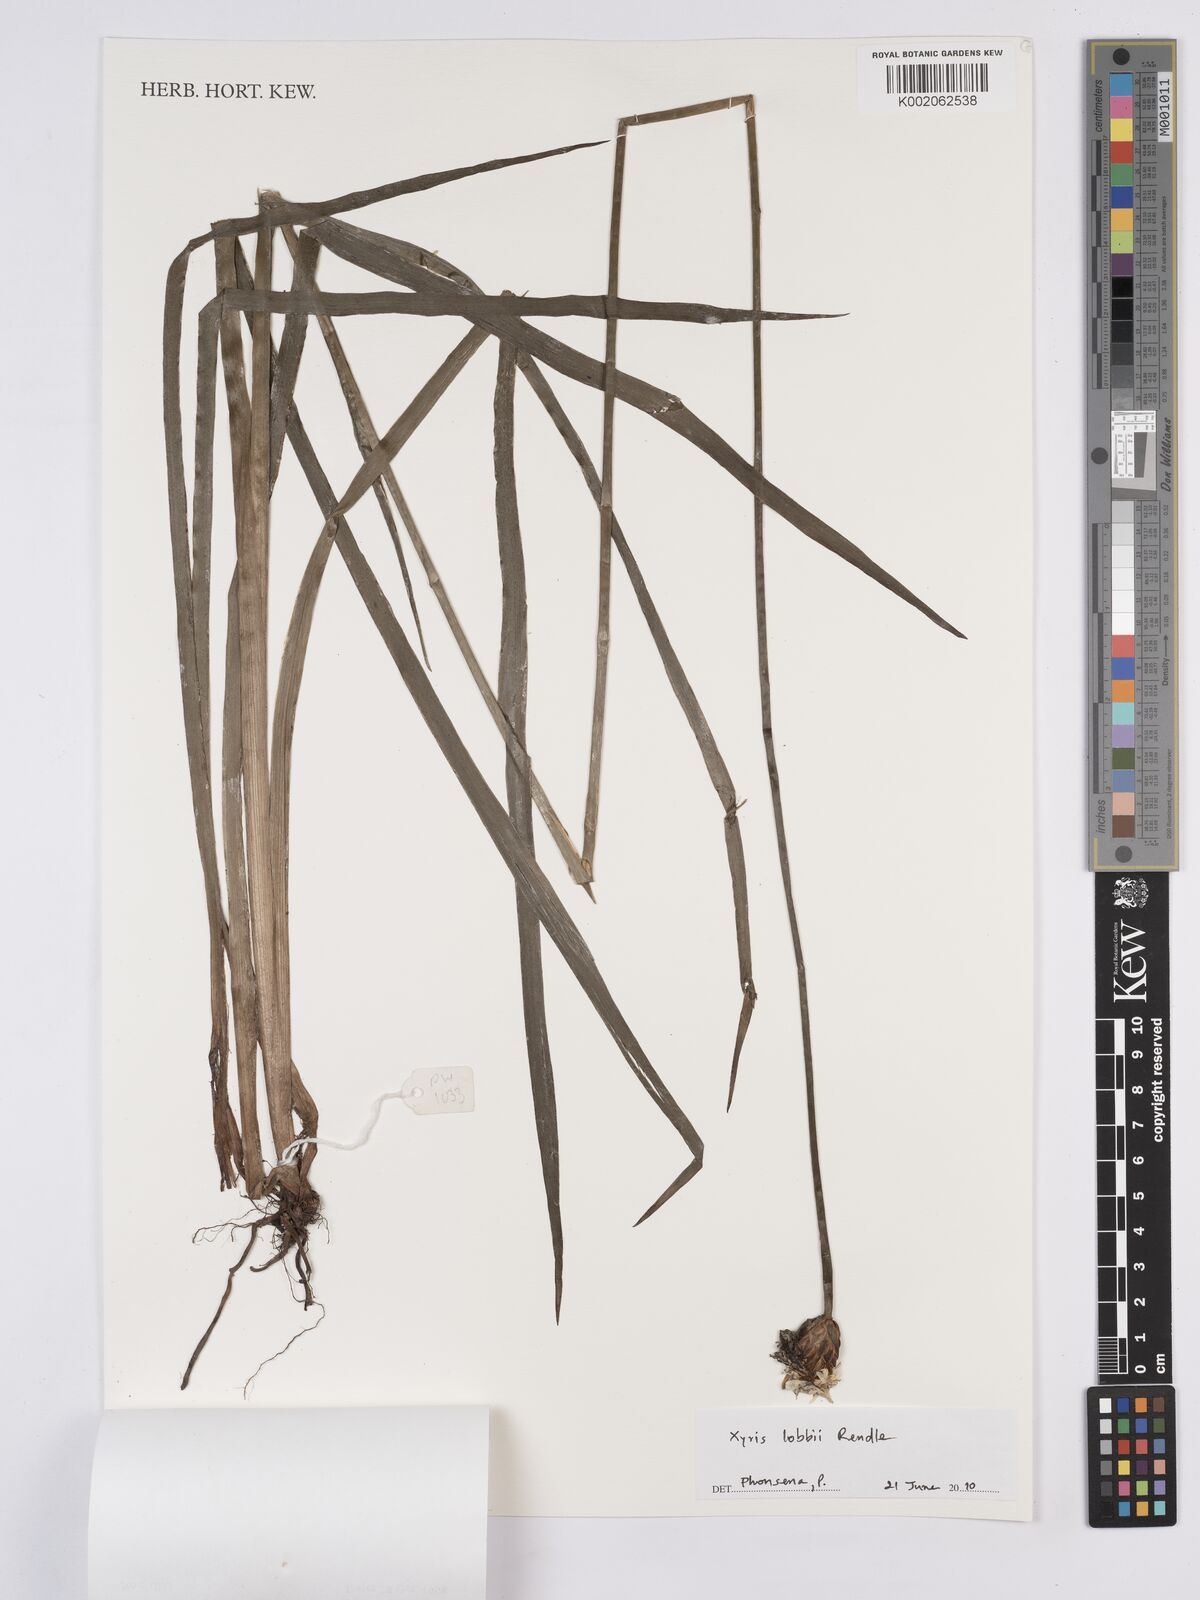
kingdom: Plantae
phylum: Tracheophyta
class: Liliopsida
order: Poales
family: Xyridaceae
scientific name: Xyridaceae
